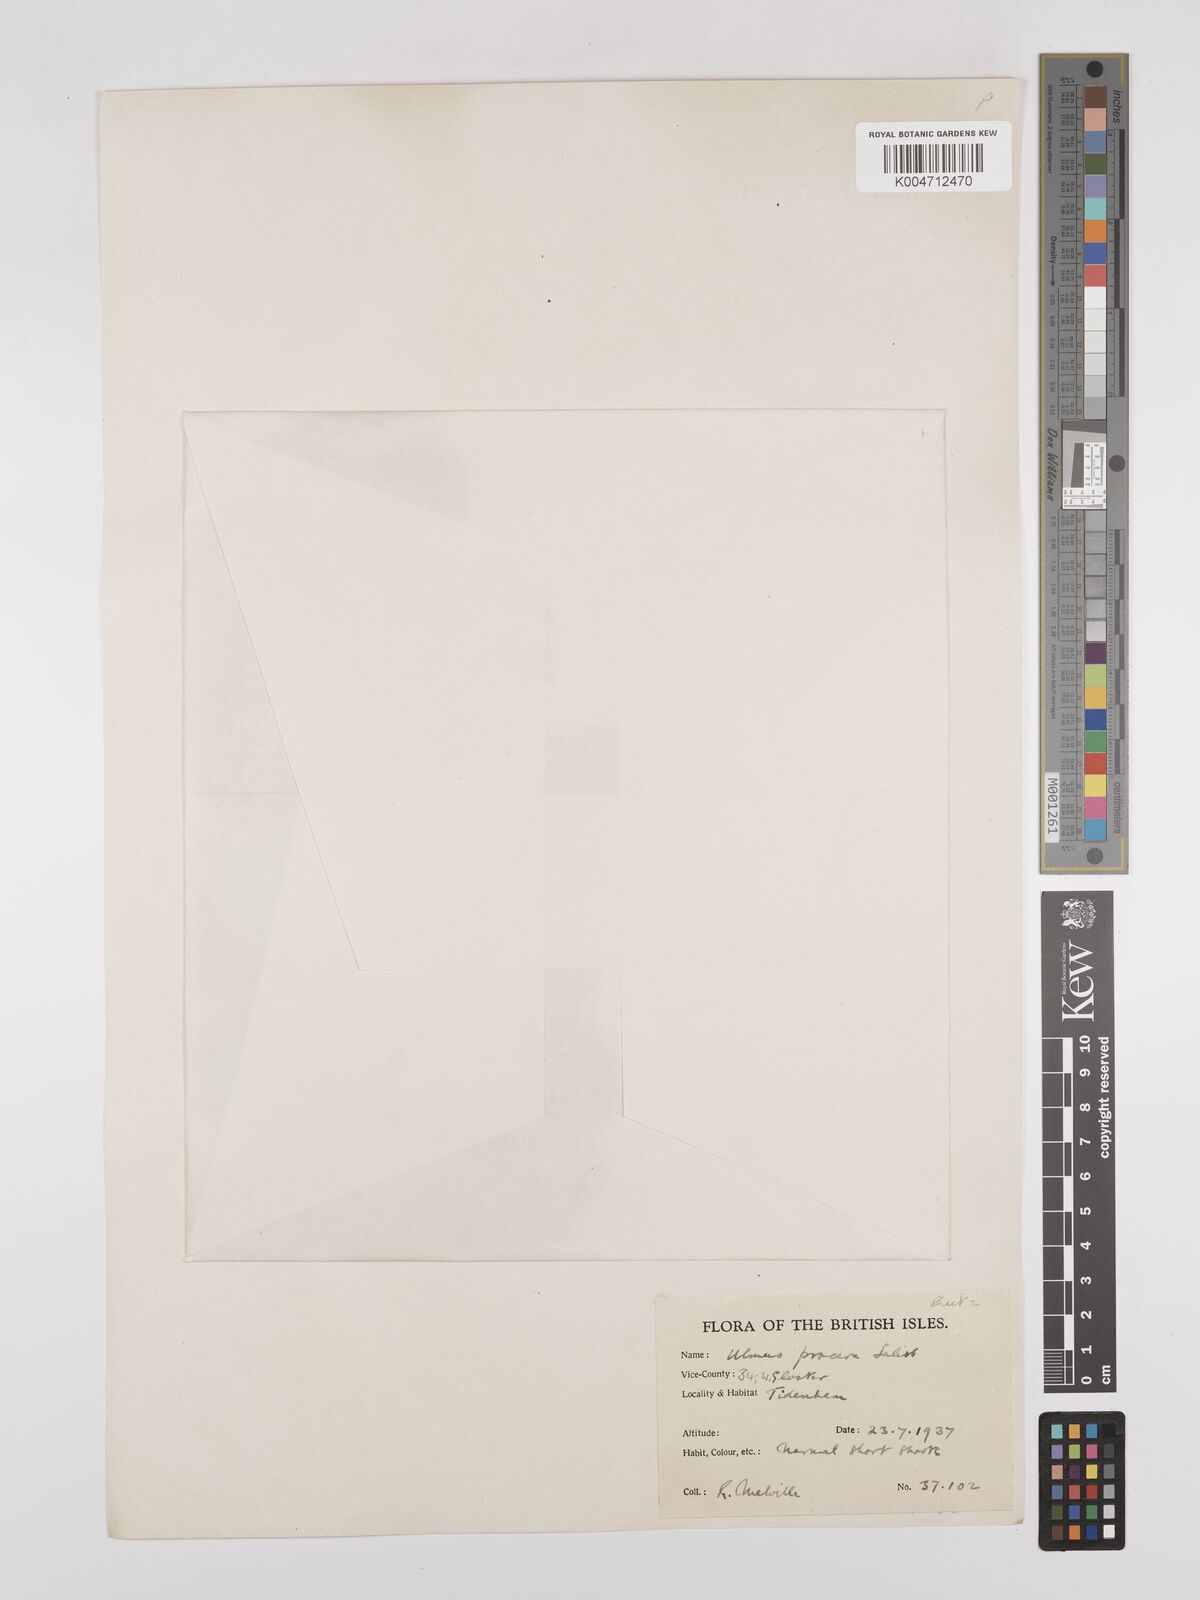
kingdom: Plantae
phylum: Tracheophyta
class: Magnoliopsida
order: Rosales
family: Ulmaceae
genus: Ulmus
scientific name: Ulmus minor
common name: Small-leaved elm
